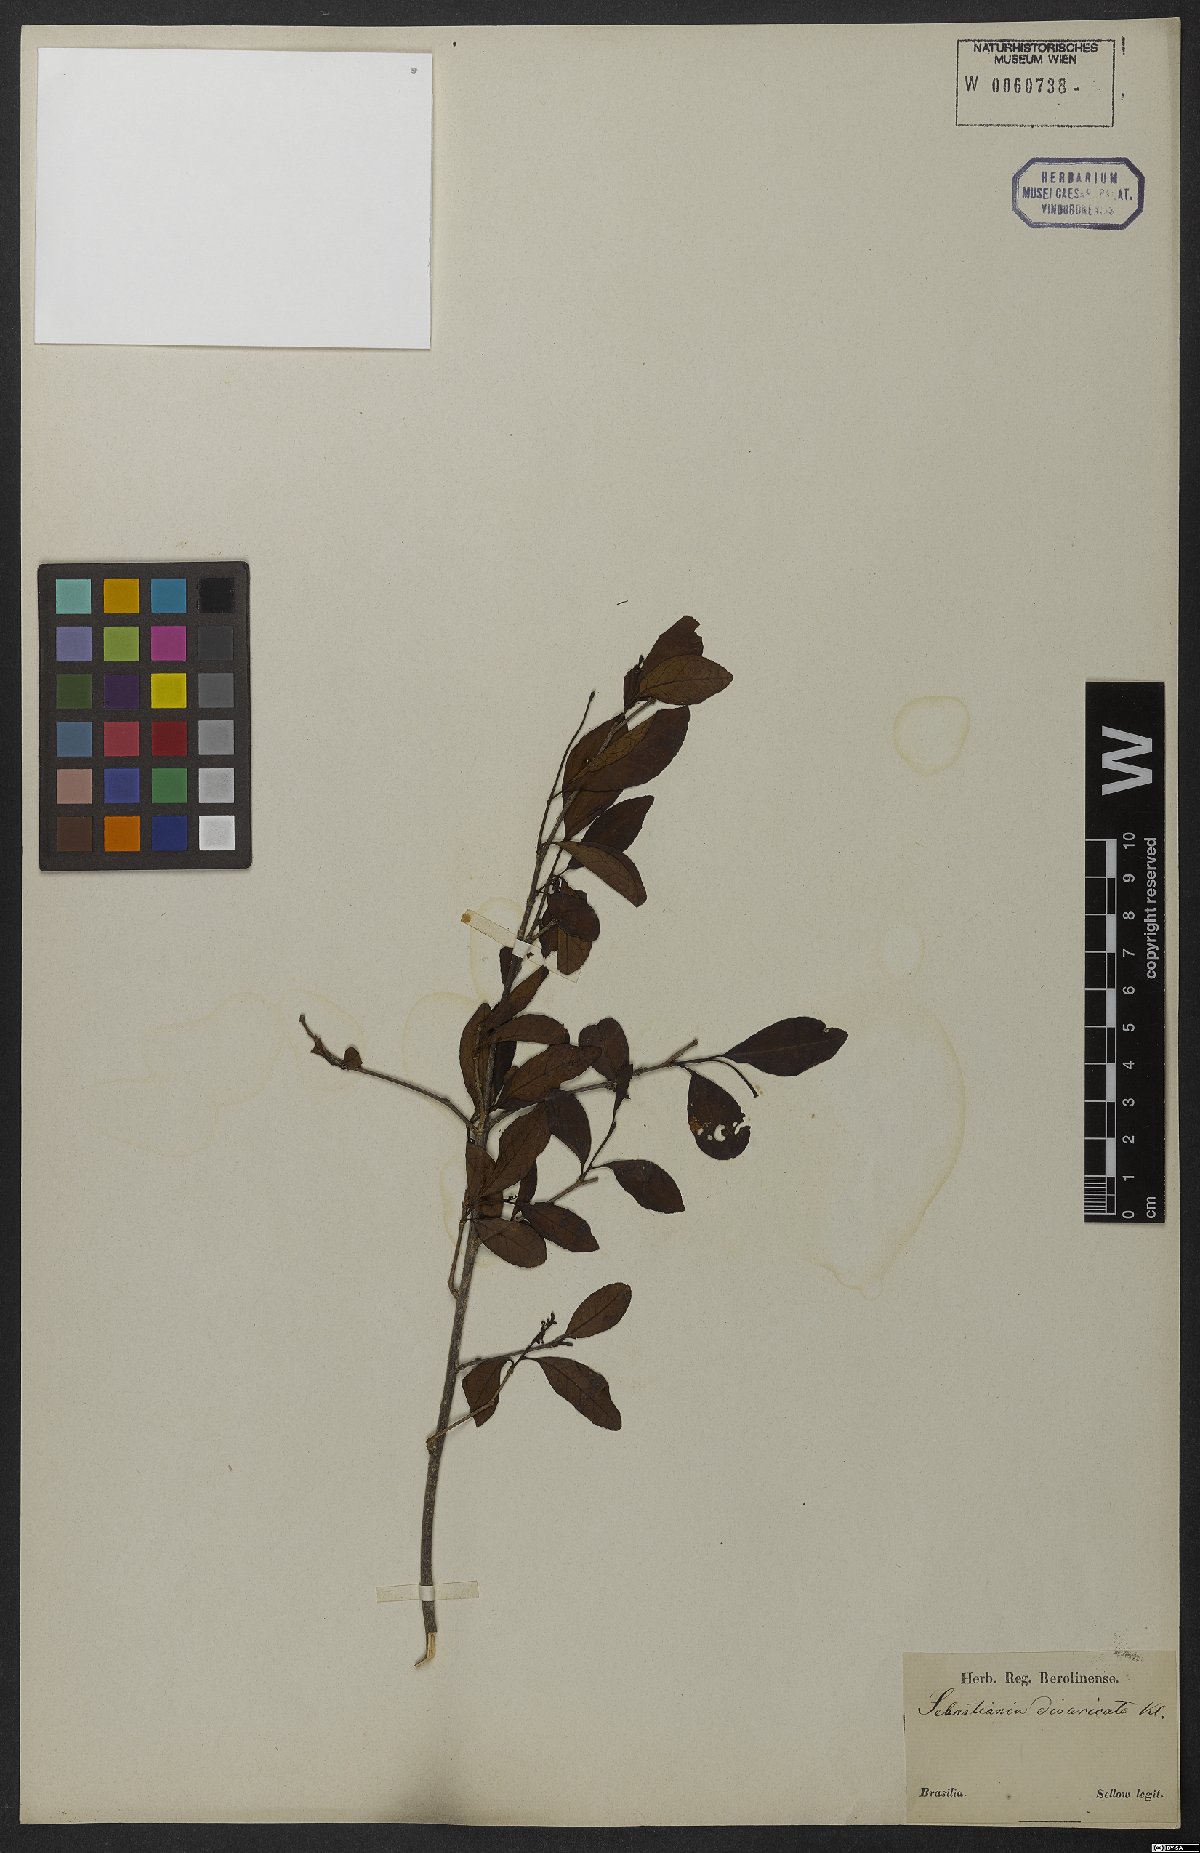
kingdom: Plantae
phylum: Tracheophyta
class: Magnoliopsida
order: Malpighiales
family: Euphorbiaceae
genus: Sebastiania
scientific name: Sebastiania ramosissima
